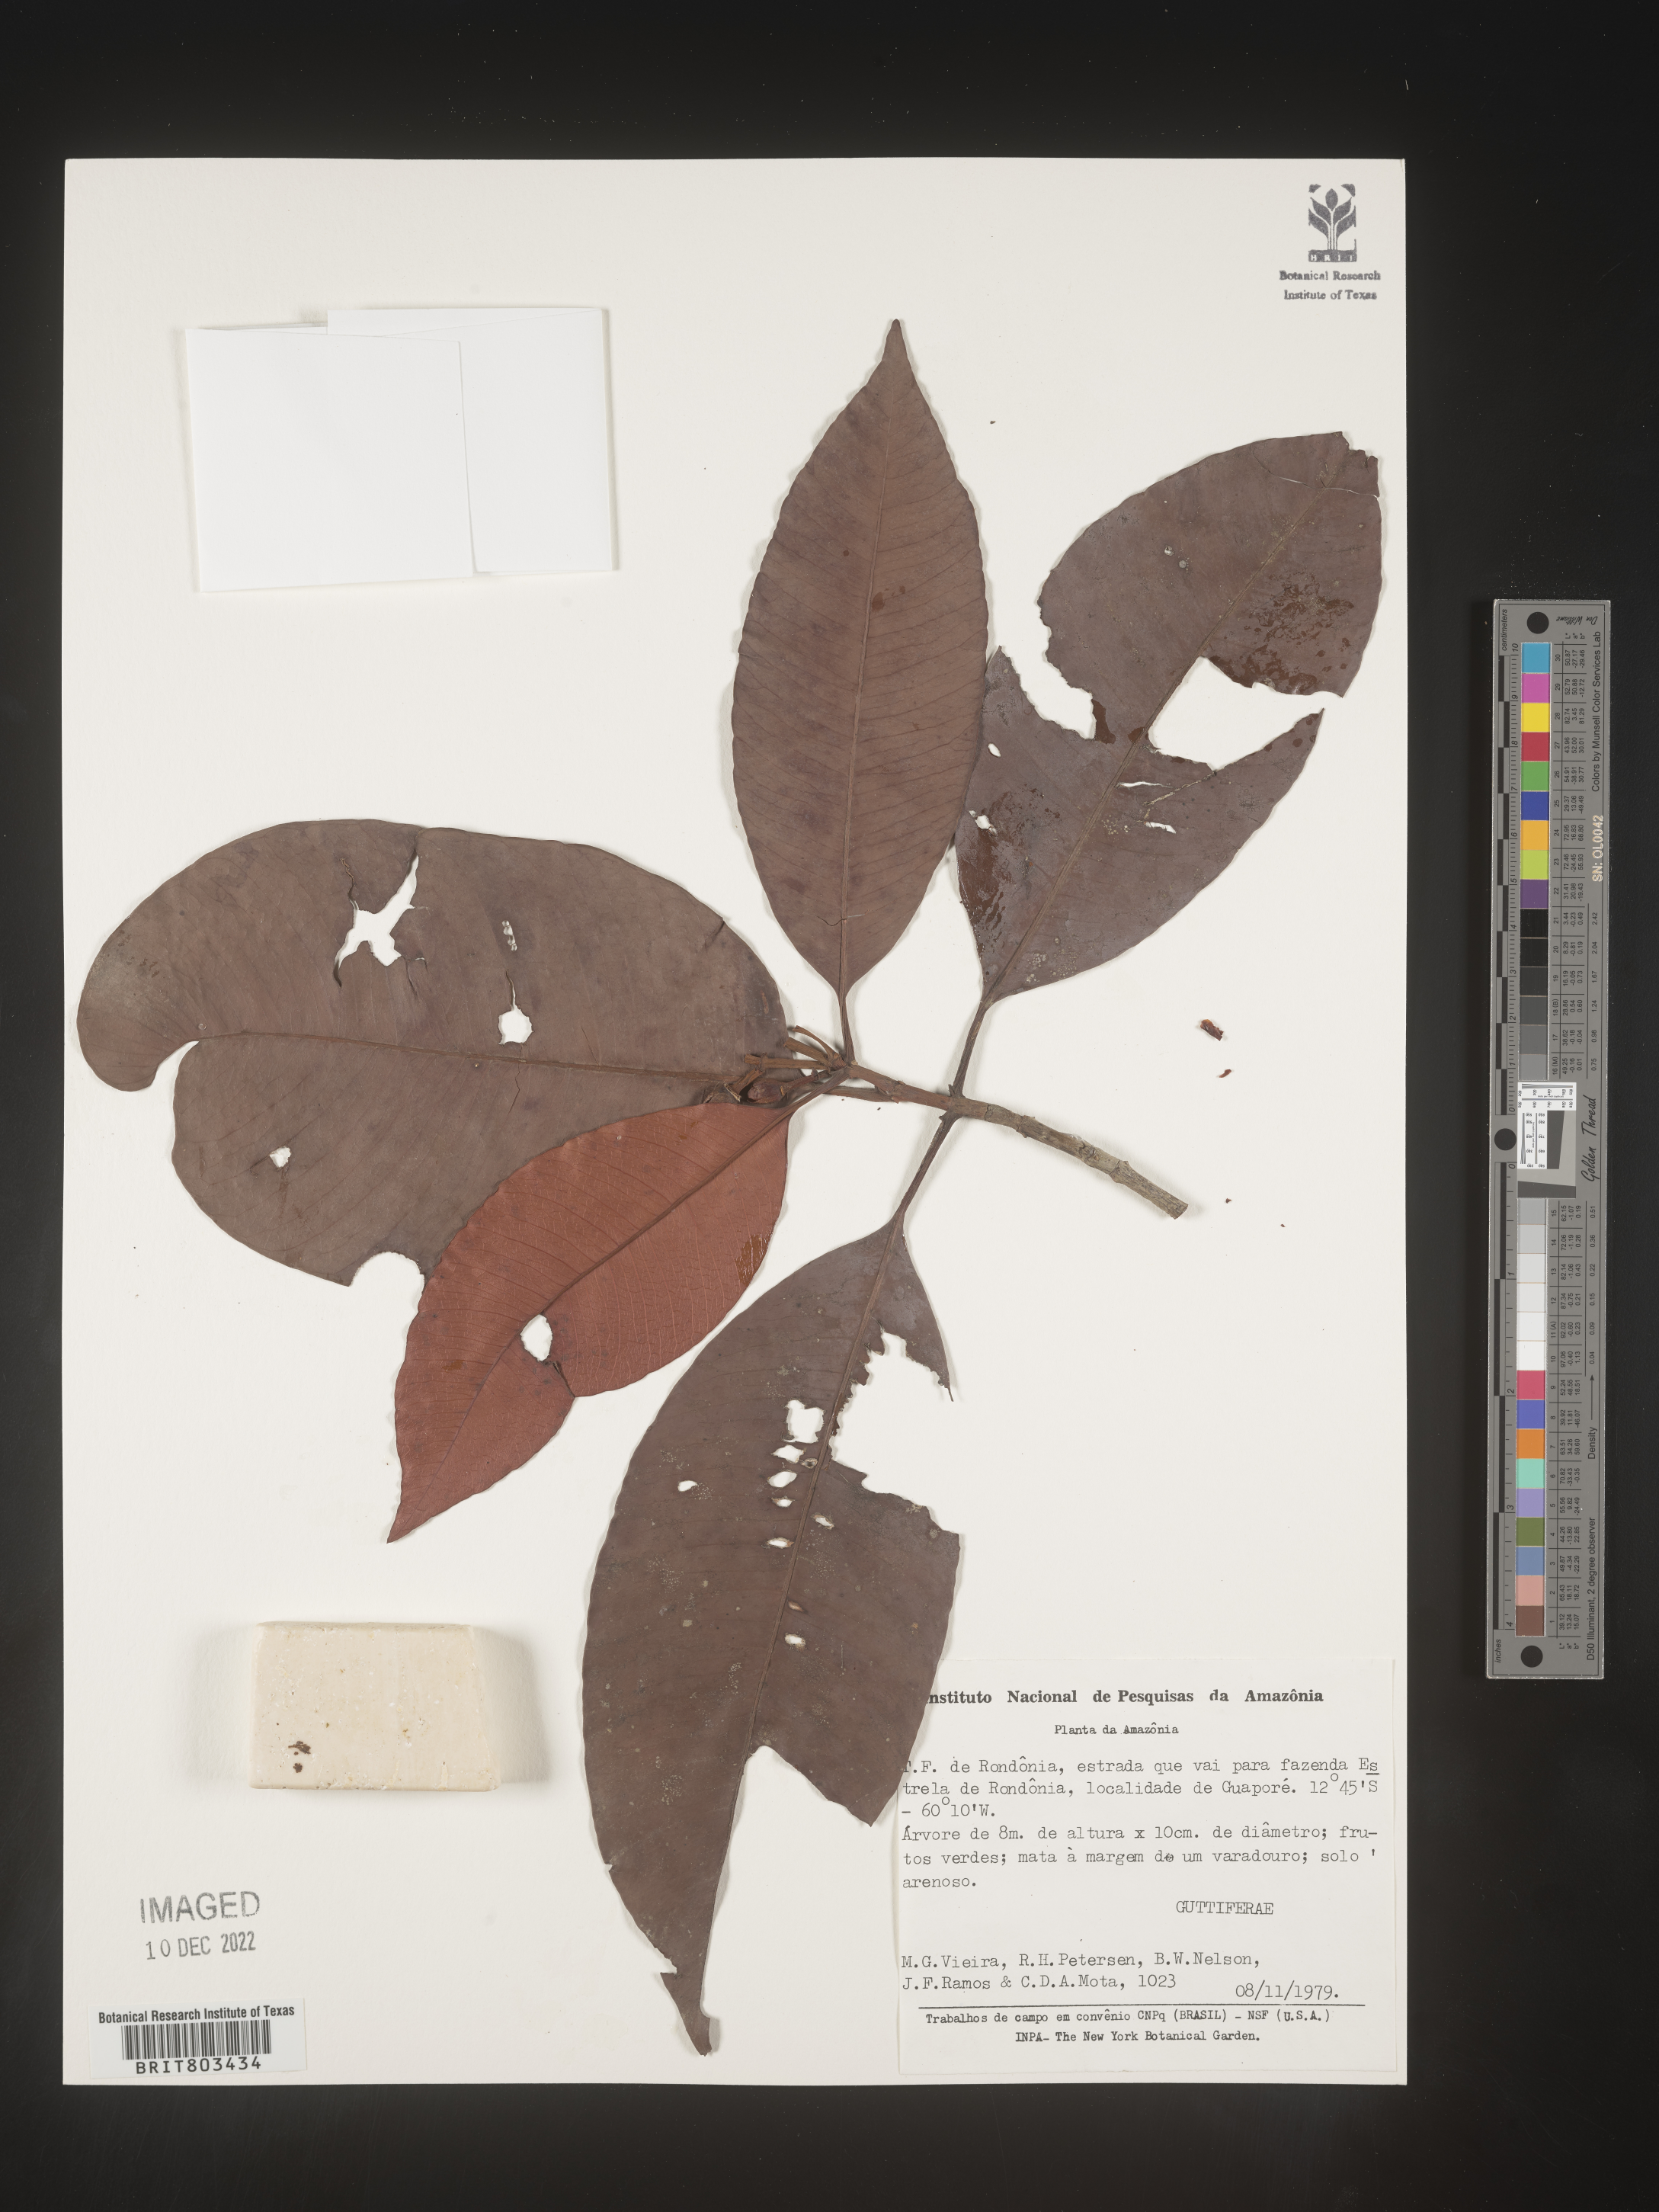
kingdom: Plantae
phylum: Tracheophyta
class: Magnoliopsida
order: Malpighiales
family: Clusiaceae
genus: Tovomita
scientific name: Tovomita
